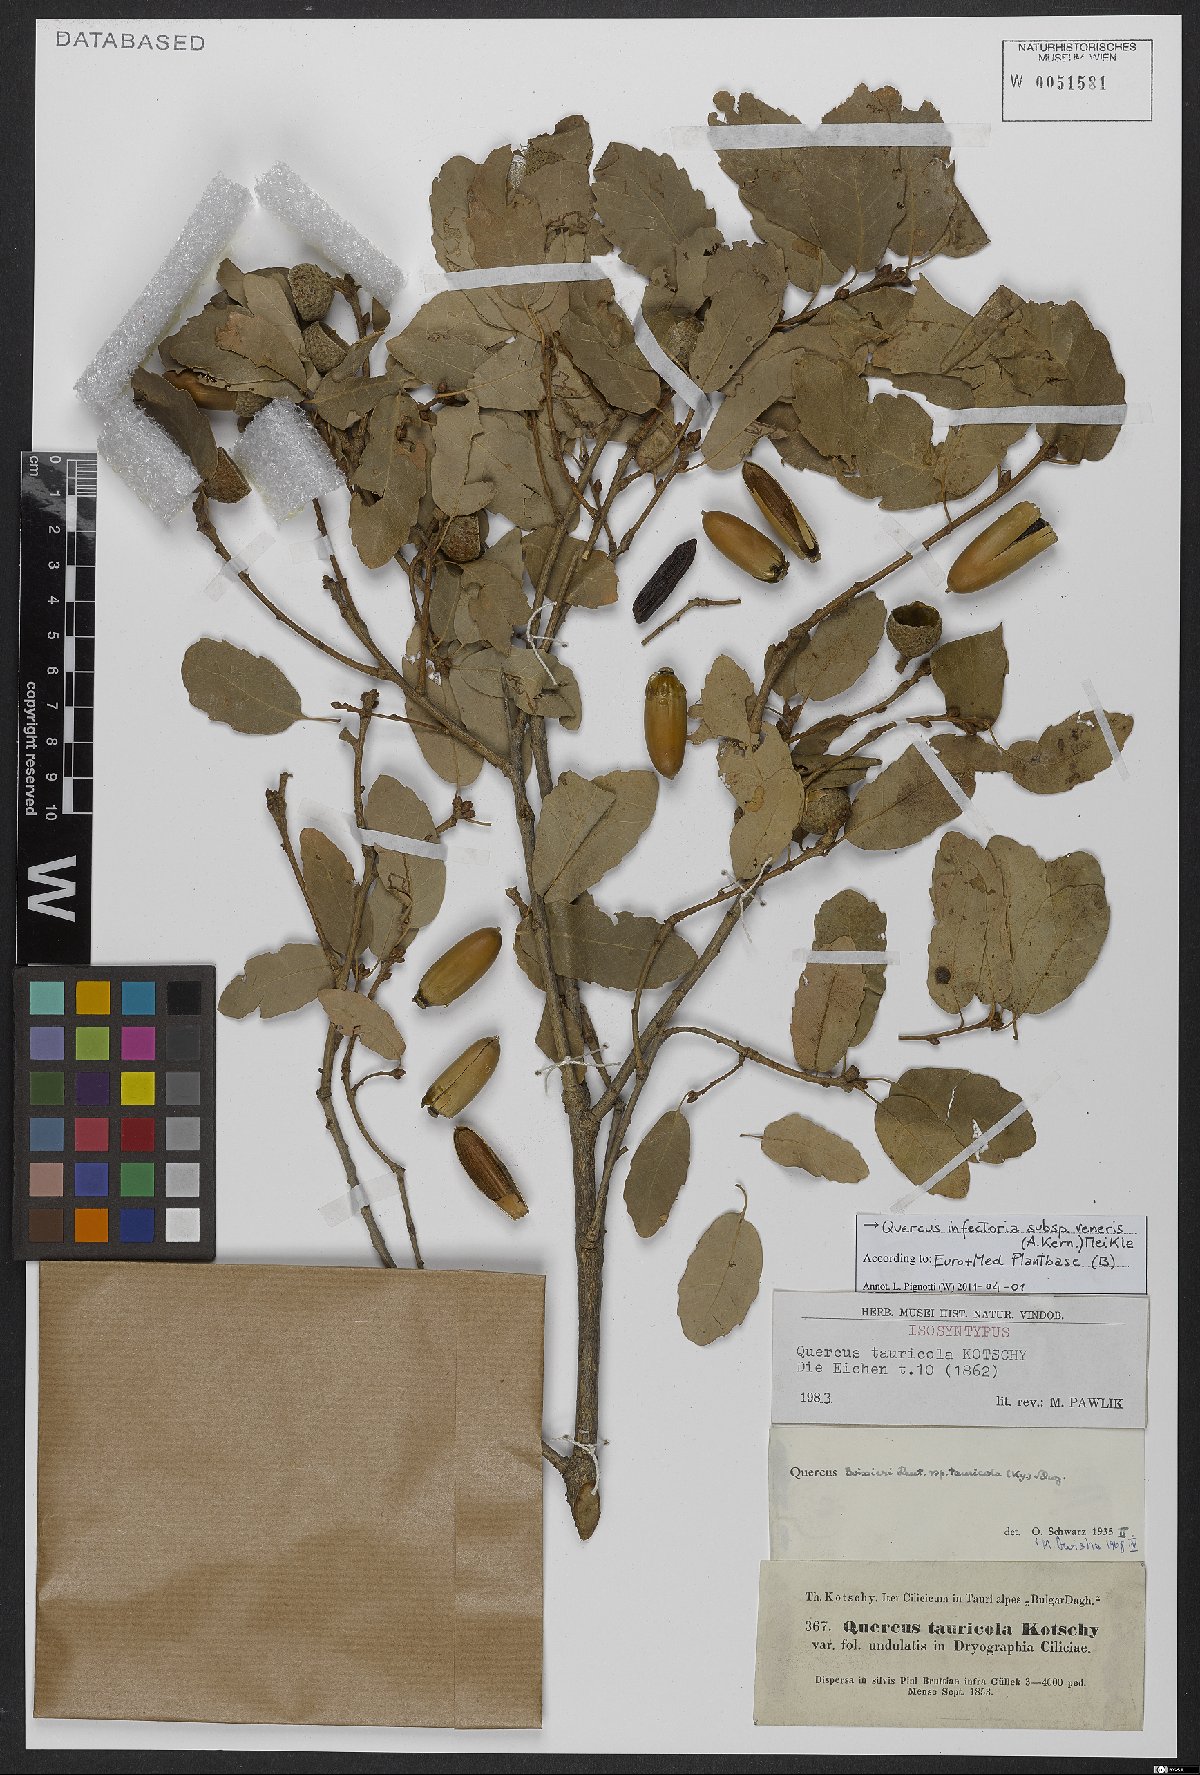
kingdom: Plantae
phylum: Tracheophyta
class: Magnoliopsida
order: Fagales
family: Fagaceae
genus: Quercus
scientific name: Quercus infectoria
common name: Aleppo oak
